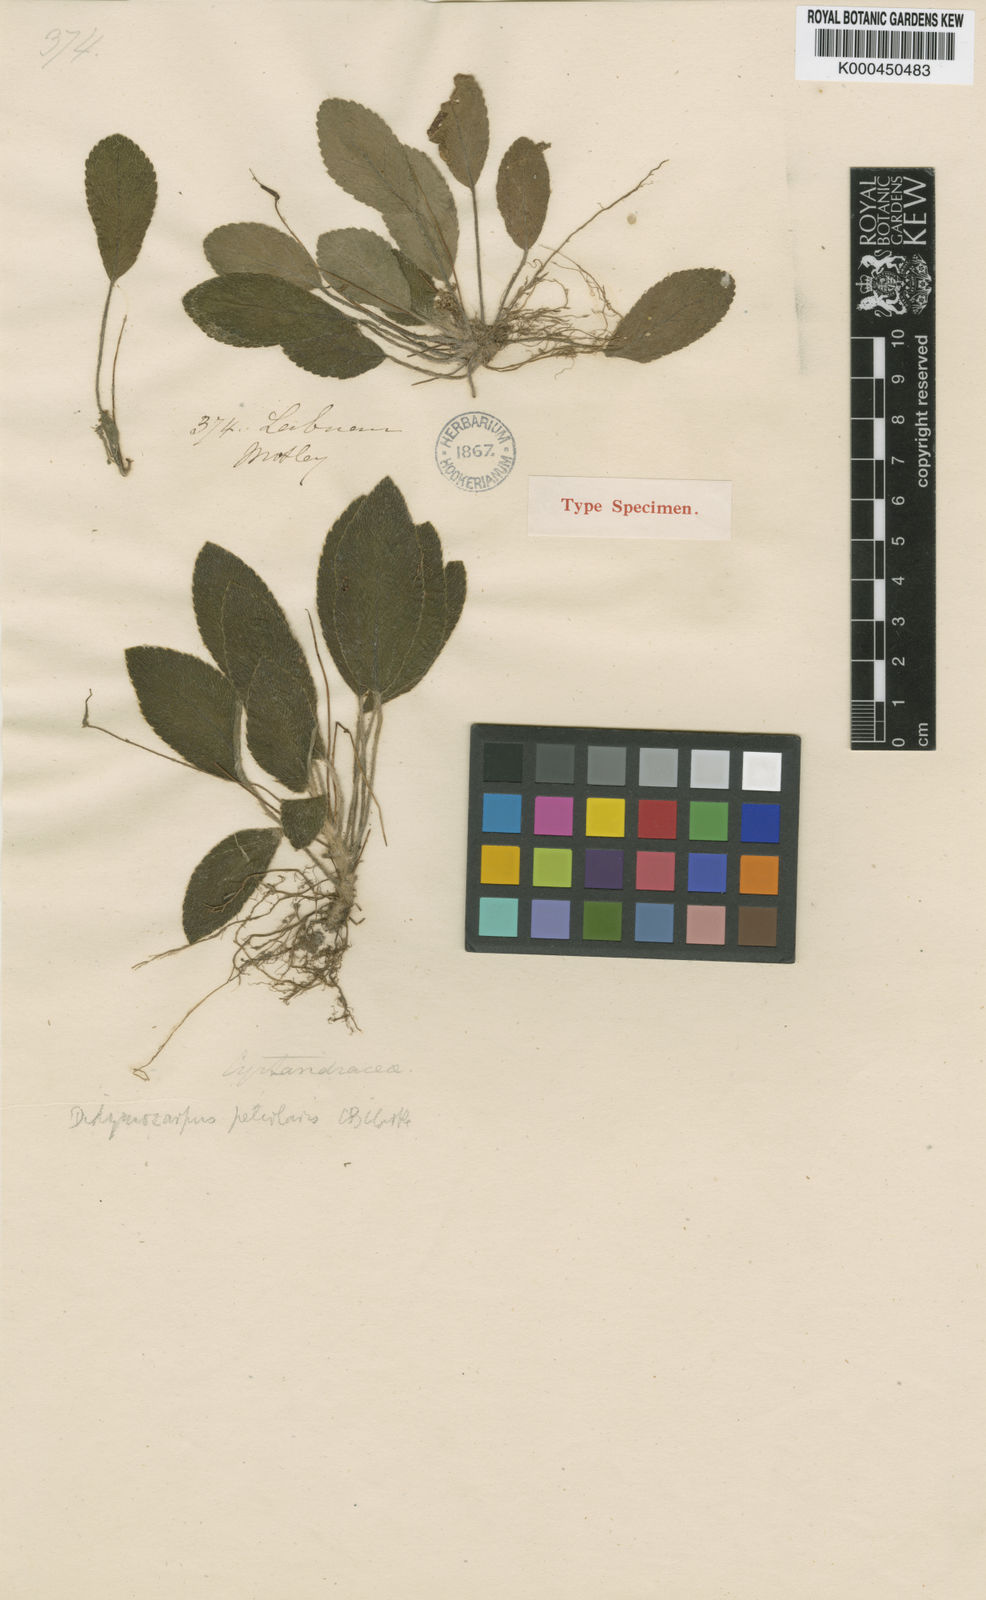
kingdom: Plantae
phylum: Tracheophyta
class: Magnoliopsida
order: Lamiales
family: Gesneriaceae
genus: Henckelia
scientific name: Henckelia petiolaris
